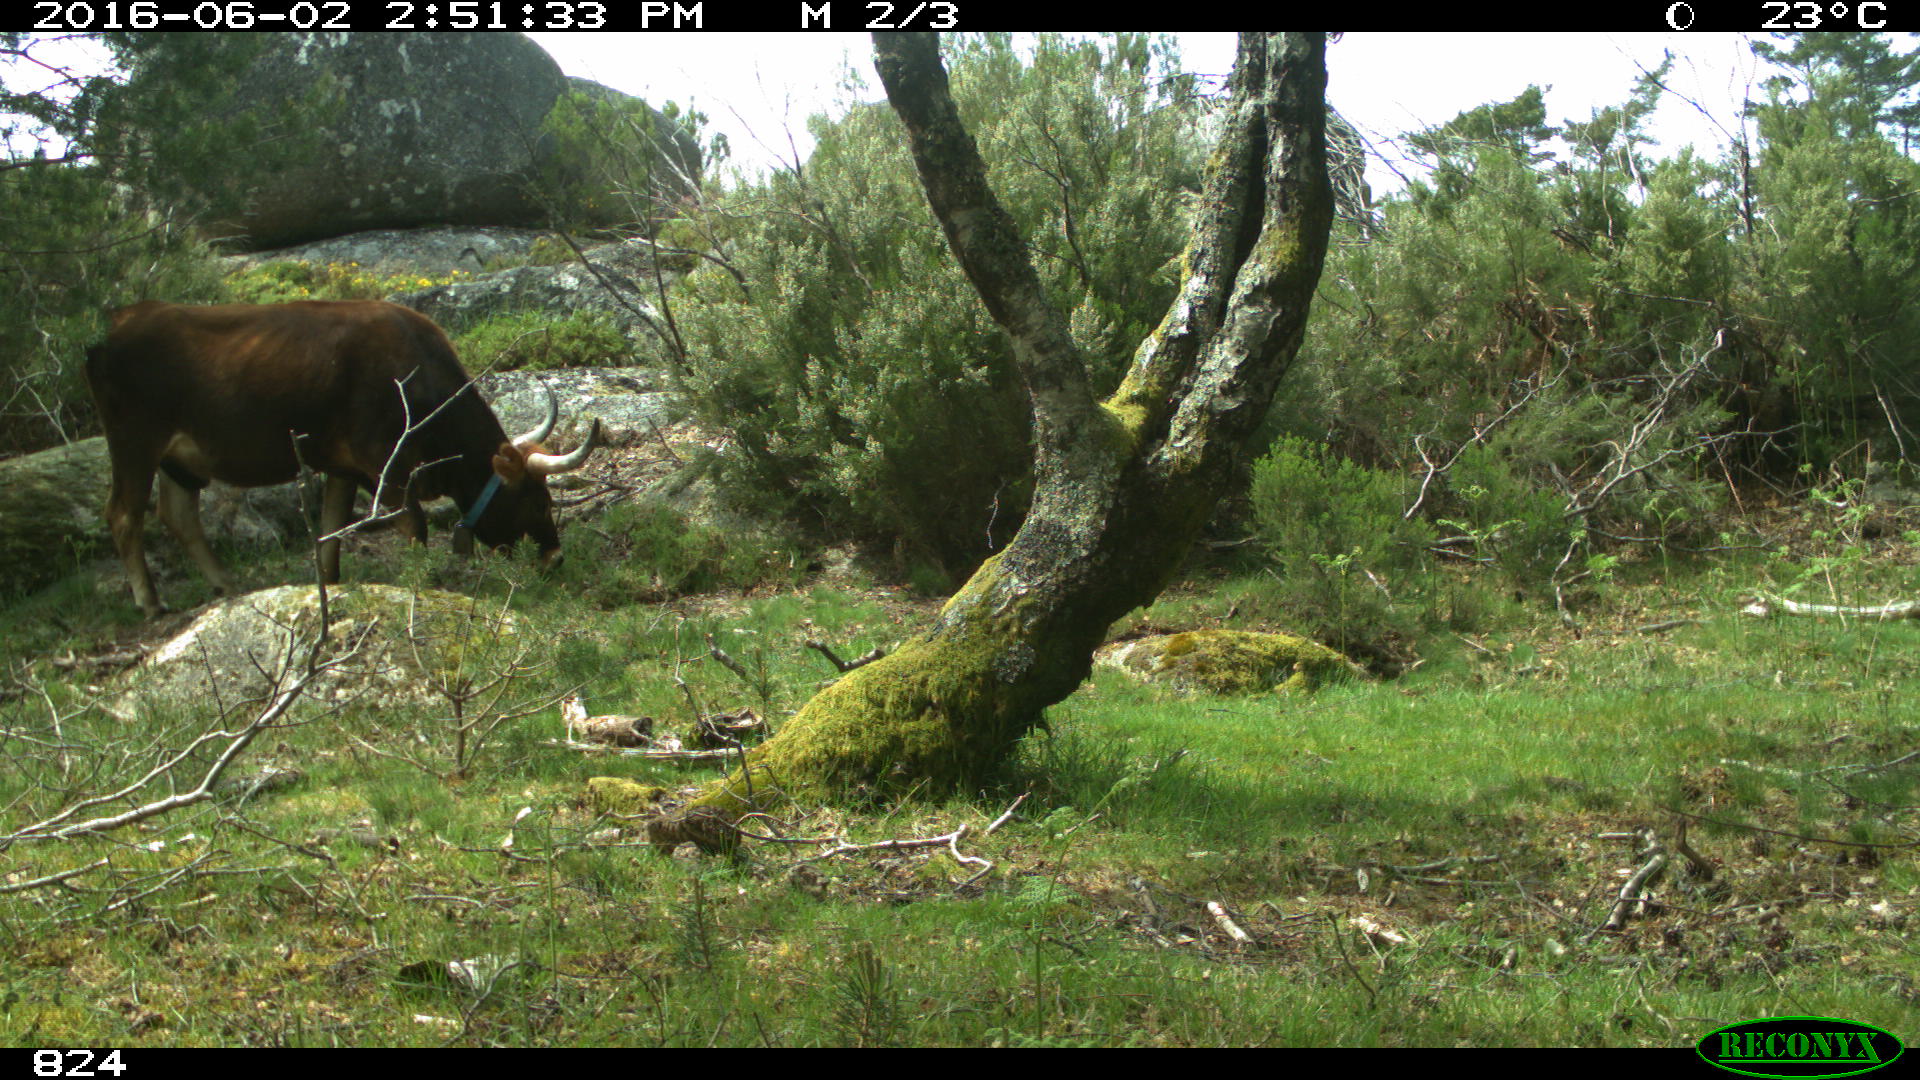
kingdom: Animalia
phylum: Chordata
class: Mammalia
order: Artiodactyla
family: Bovidae
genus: Bos
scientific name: Bos taurus
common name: Domesticated cattle
